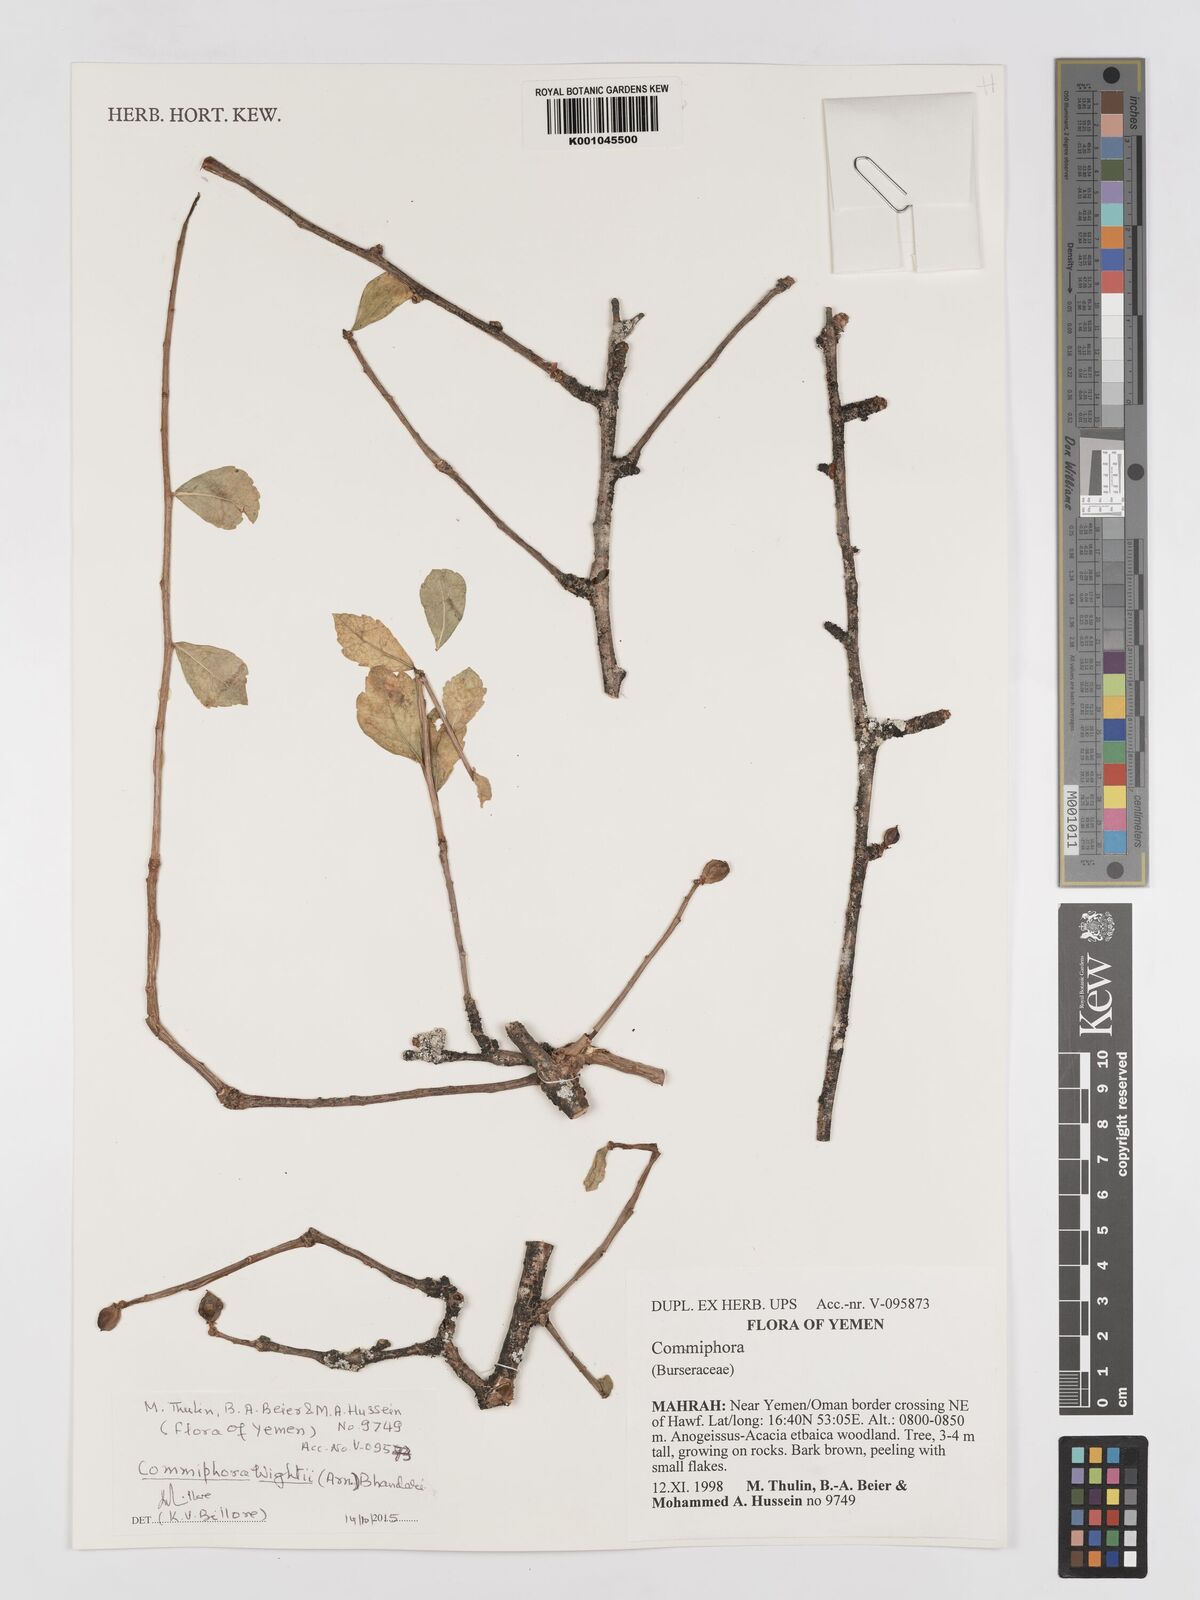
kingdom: Plantae
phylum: Tracheophyta
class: Magnoliopsida
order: Sapindales
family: Burseraceae
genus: Commiphora
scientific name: Commiphora wightii
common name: Indian bdellium-tree
